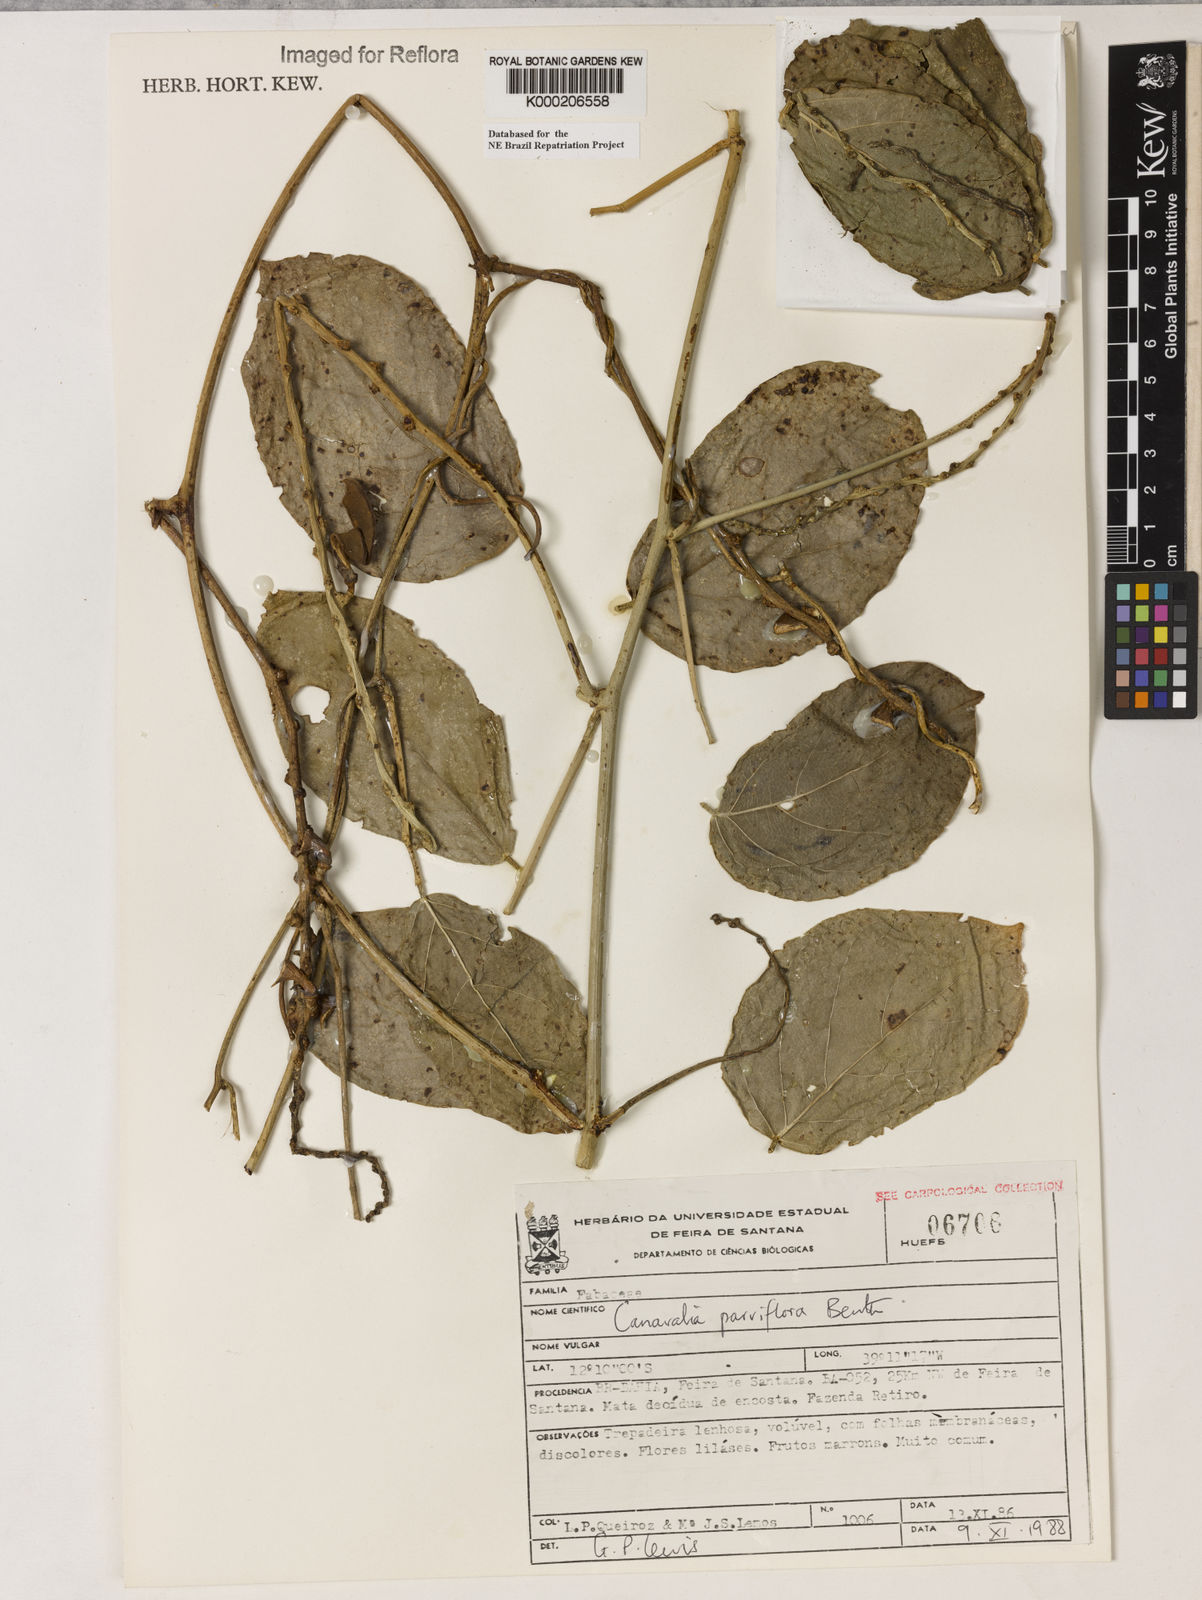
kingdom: Plantae
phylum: Tracheophyta
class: Magnoliopsida
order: Fabales
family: Fabaceae
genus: Canavalia
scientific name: Canavalia parviflora
